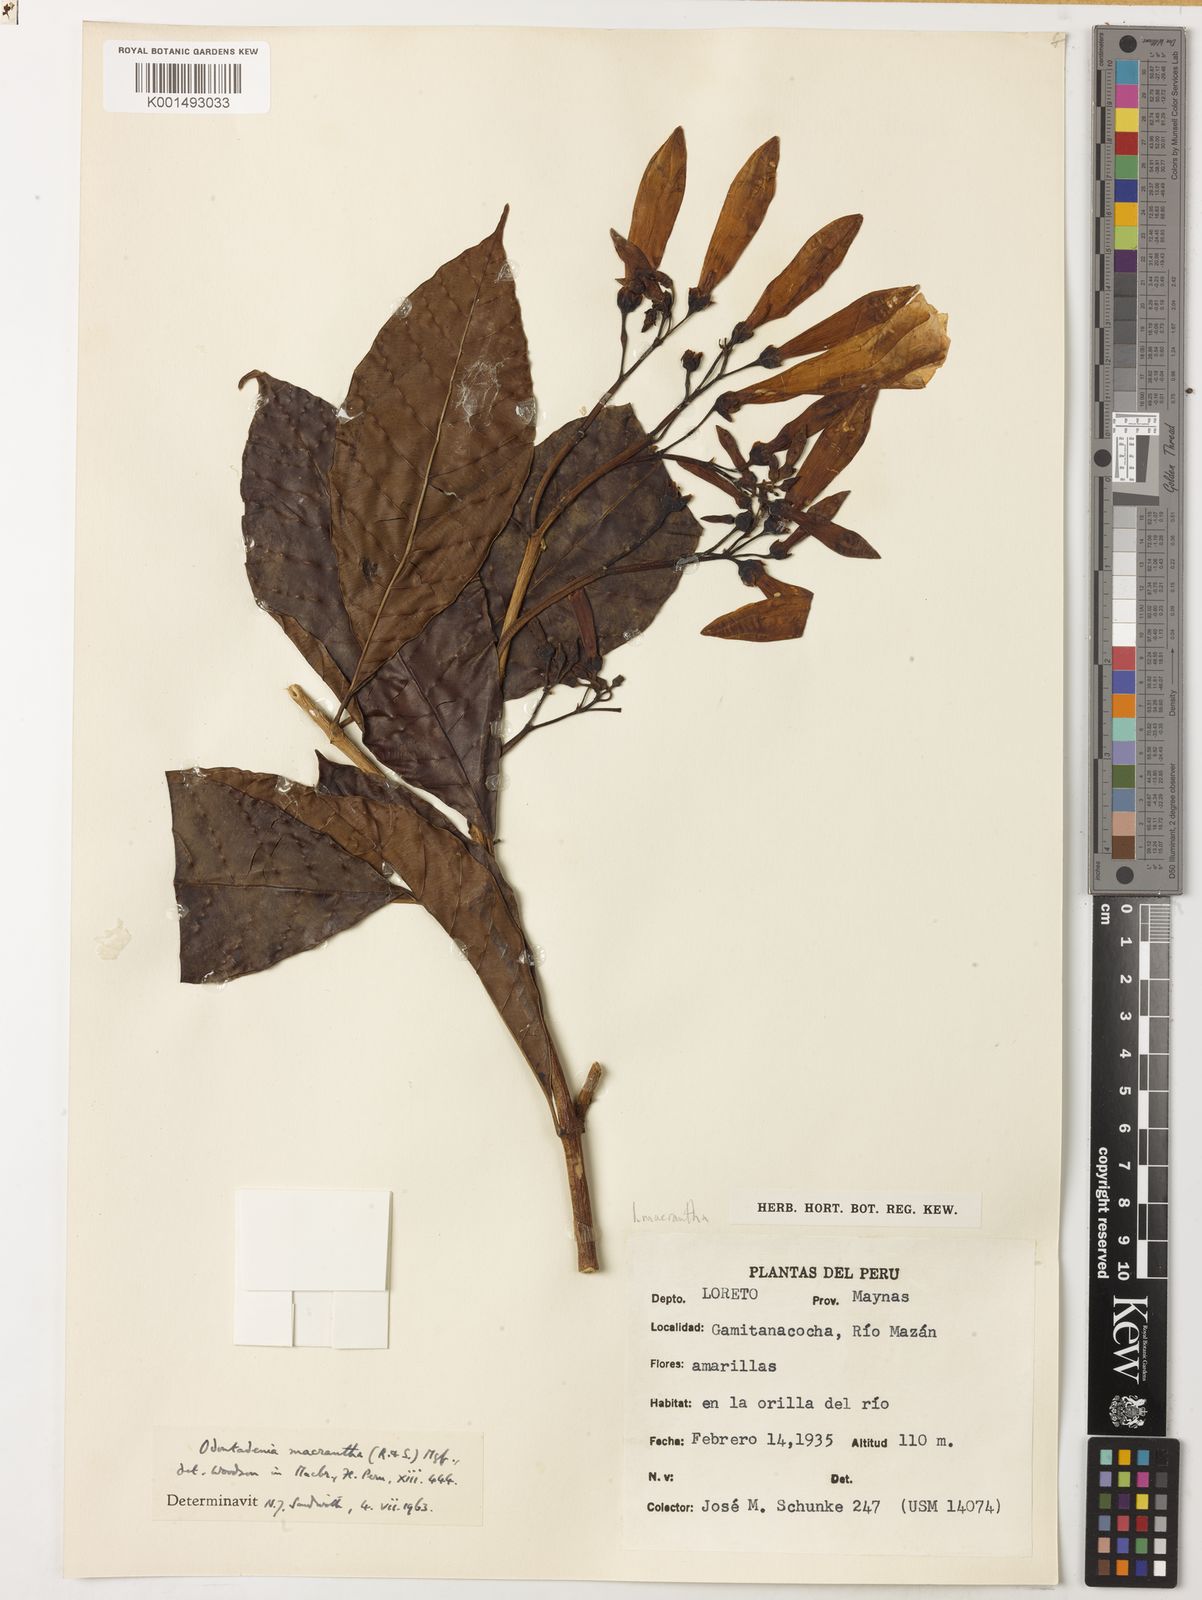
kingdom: Plantae
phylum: Tracheophyta
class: Magnoliopsida
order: Gentianales
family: Apocynaceae
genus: Odontadenia
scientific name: Odontadenia semidigyna
